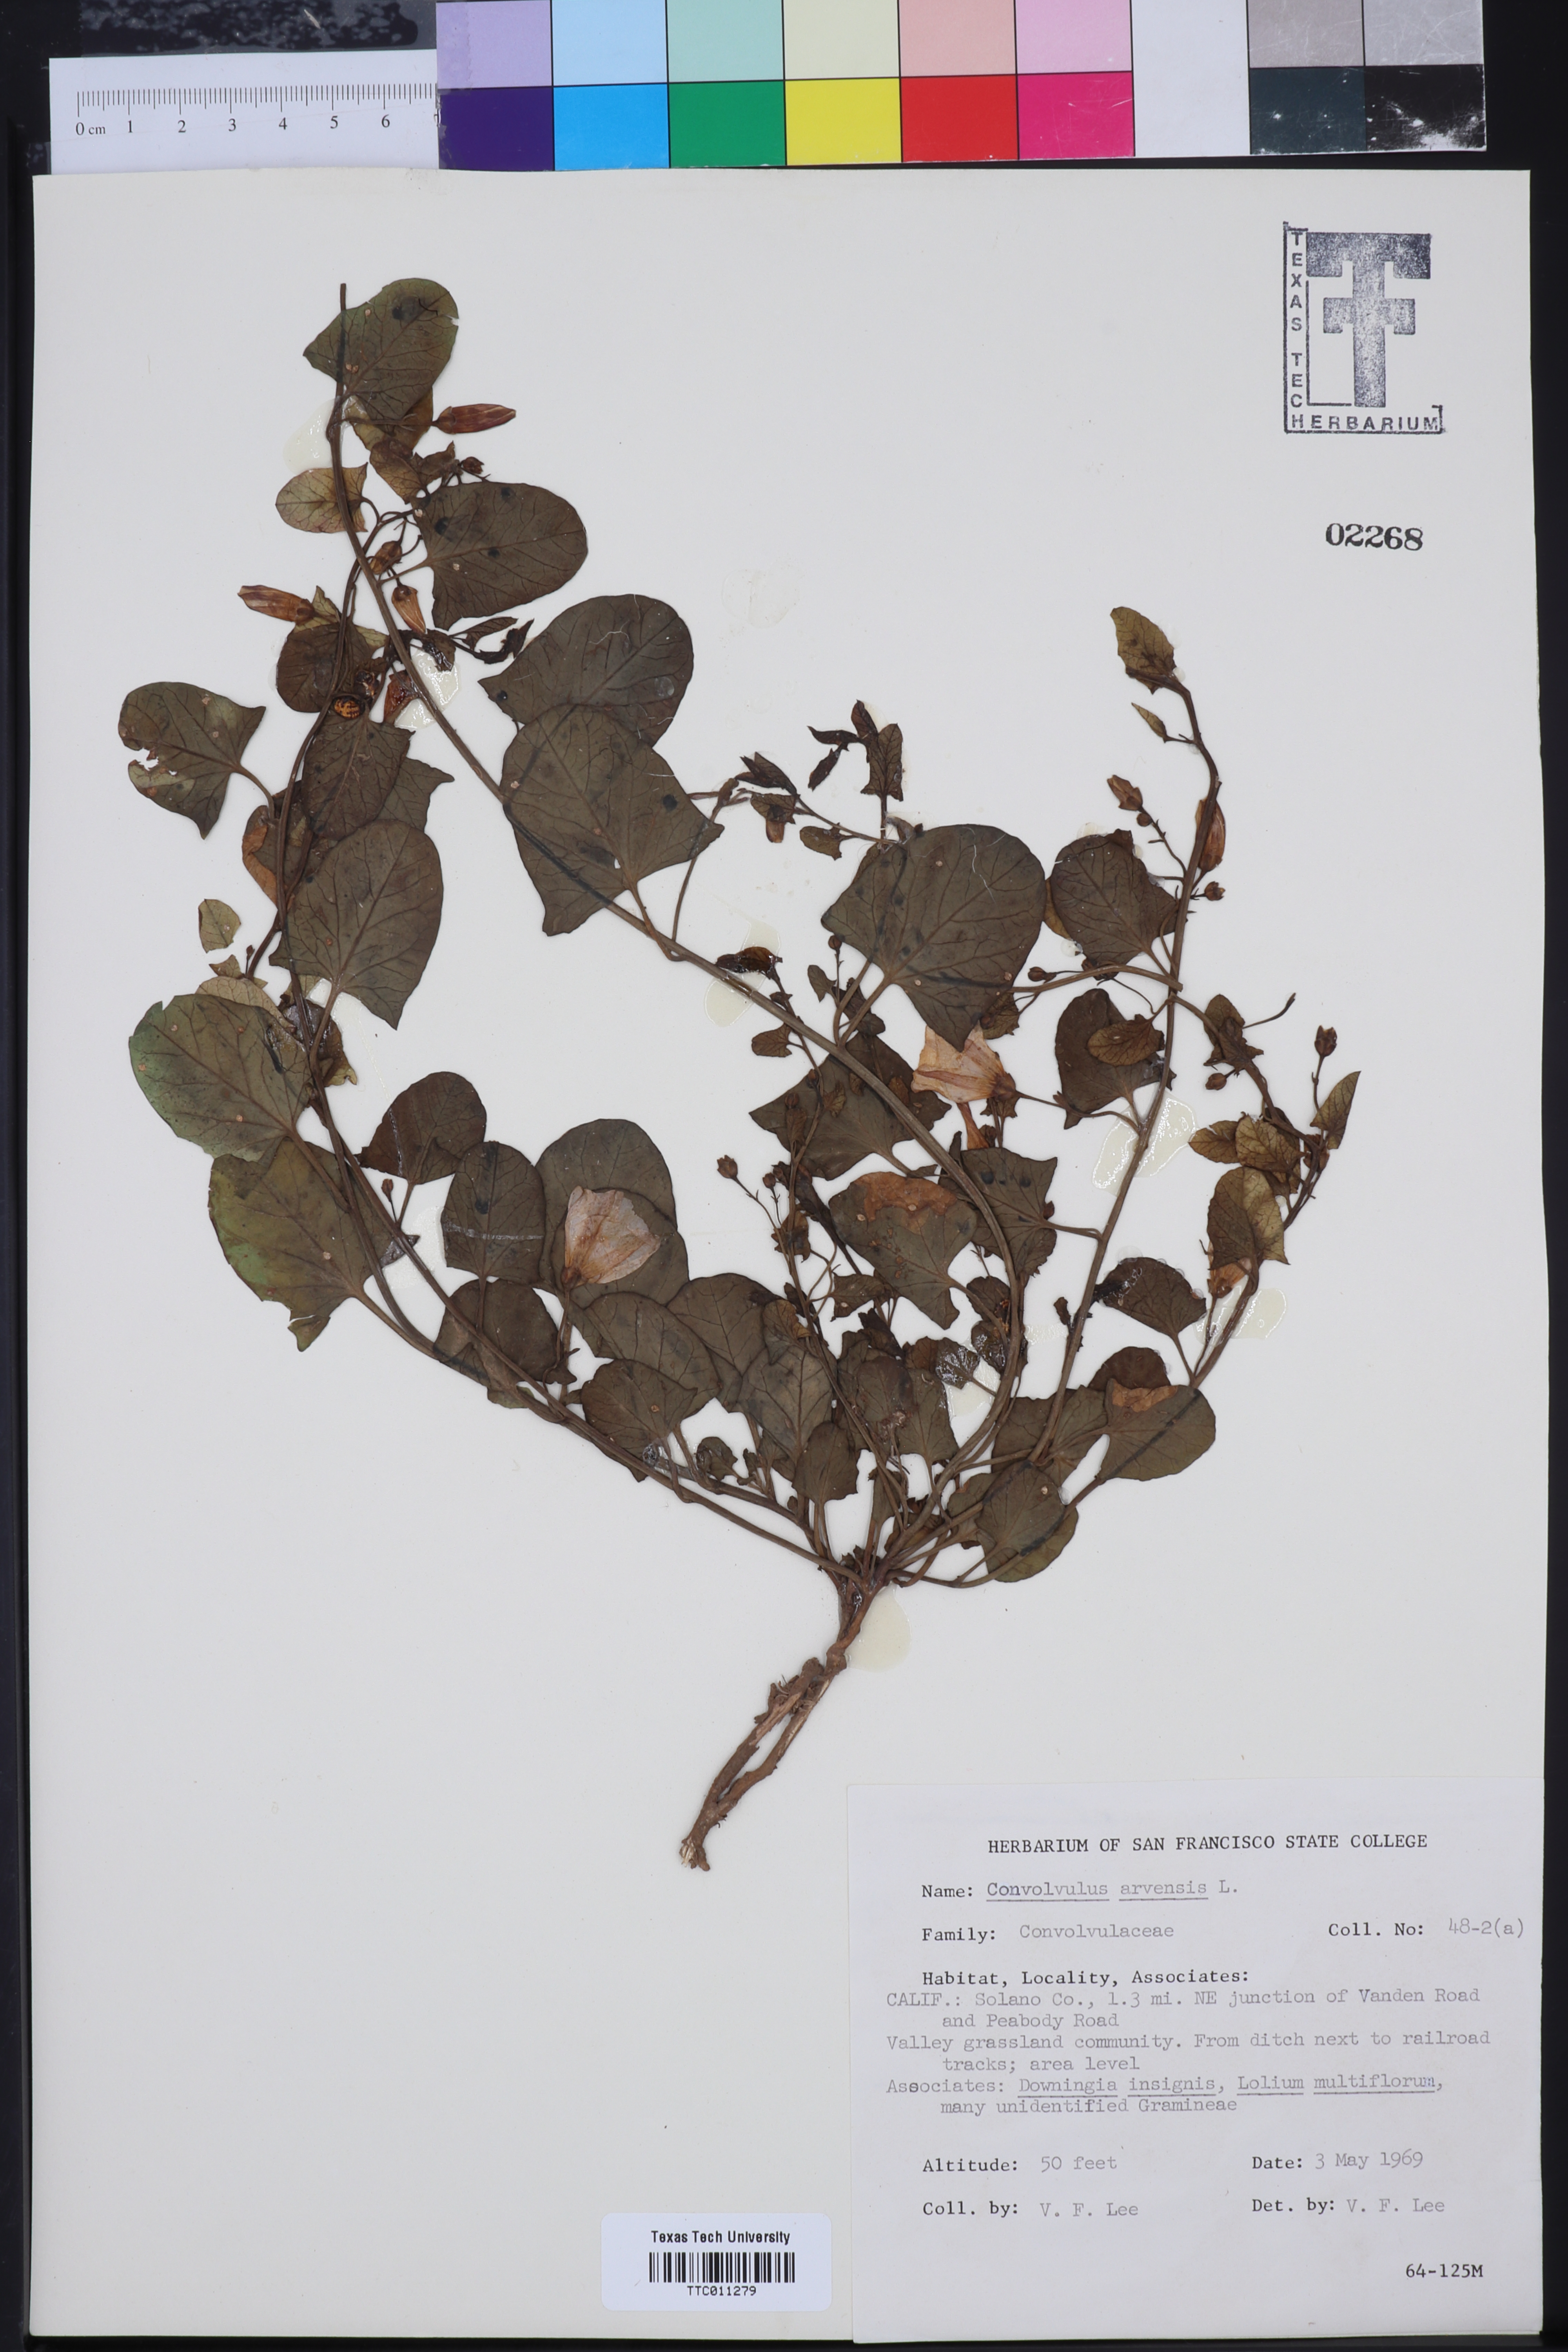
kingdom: Plantae
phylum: Tracheophyta
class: Magnoliopsida
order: Solanales
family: Convolvulaceae
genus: Convolvulus
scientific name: Convolvulus arvensis
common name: Field bindweed
